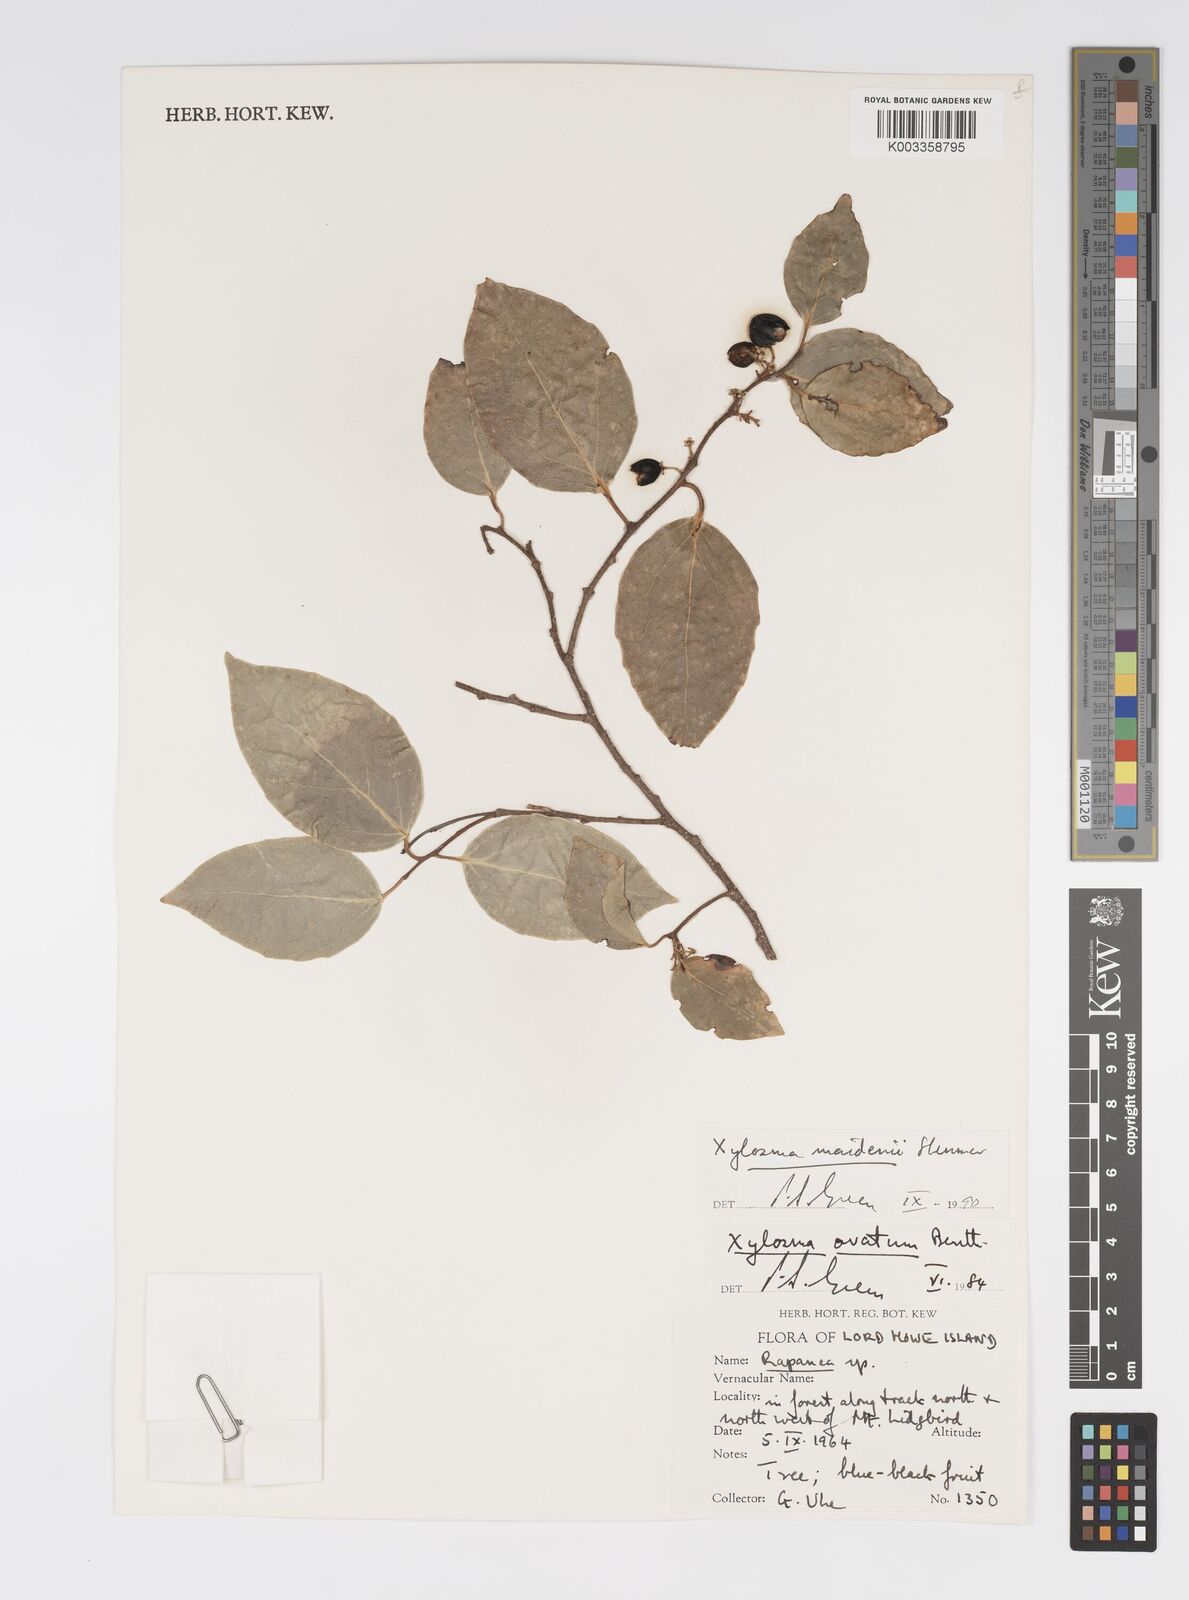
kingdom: Plantae
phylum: Tracheophyta
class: Magnoliopsida
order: Malpighiales
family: Salicaceae
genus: Xylosma
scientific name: Xylosma maidenii
